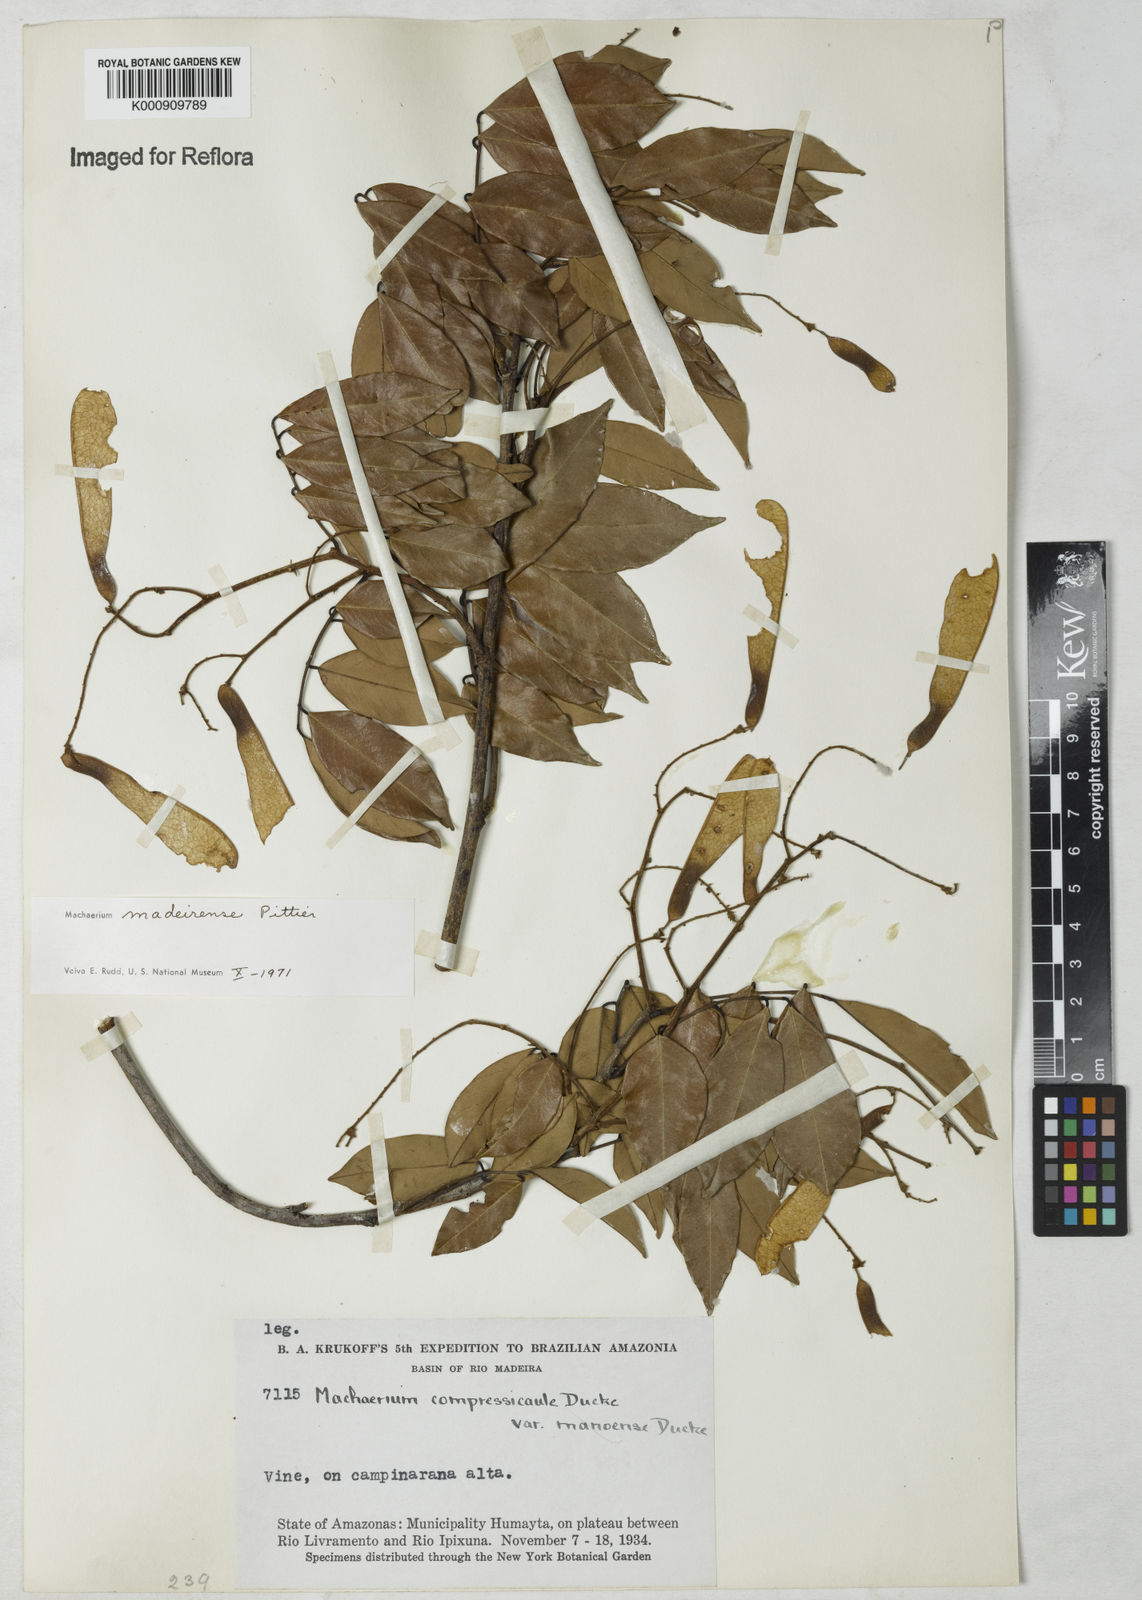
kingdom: Plantae
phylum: Tracheophyta
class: Magnoliopsida
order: Fabales
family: Fabaceae
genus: Machaerium
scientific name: Machaerium madeirense
